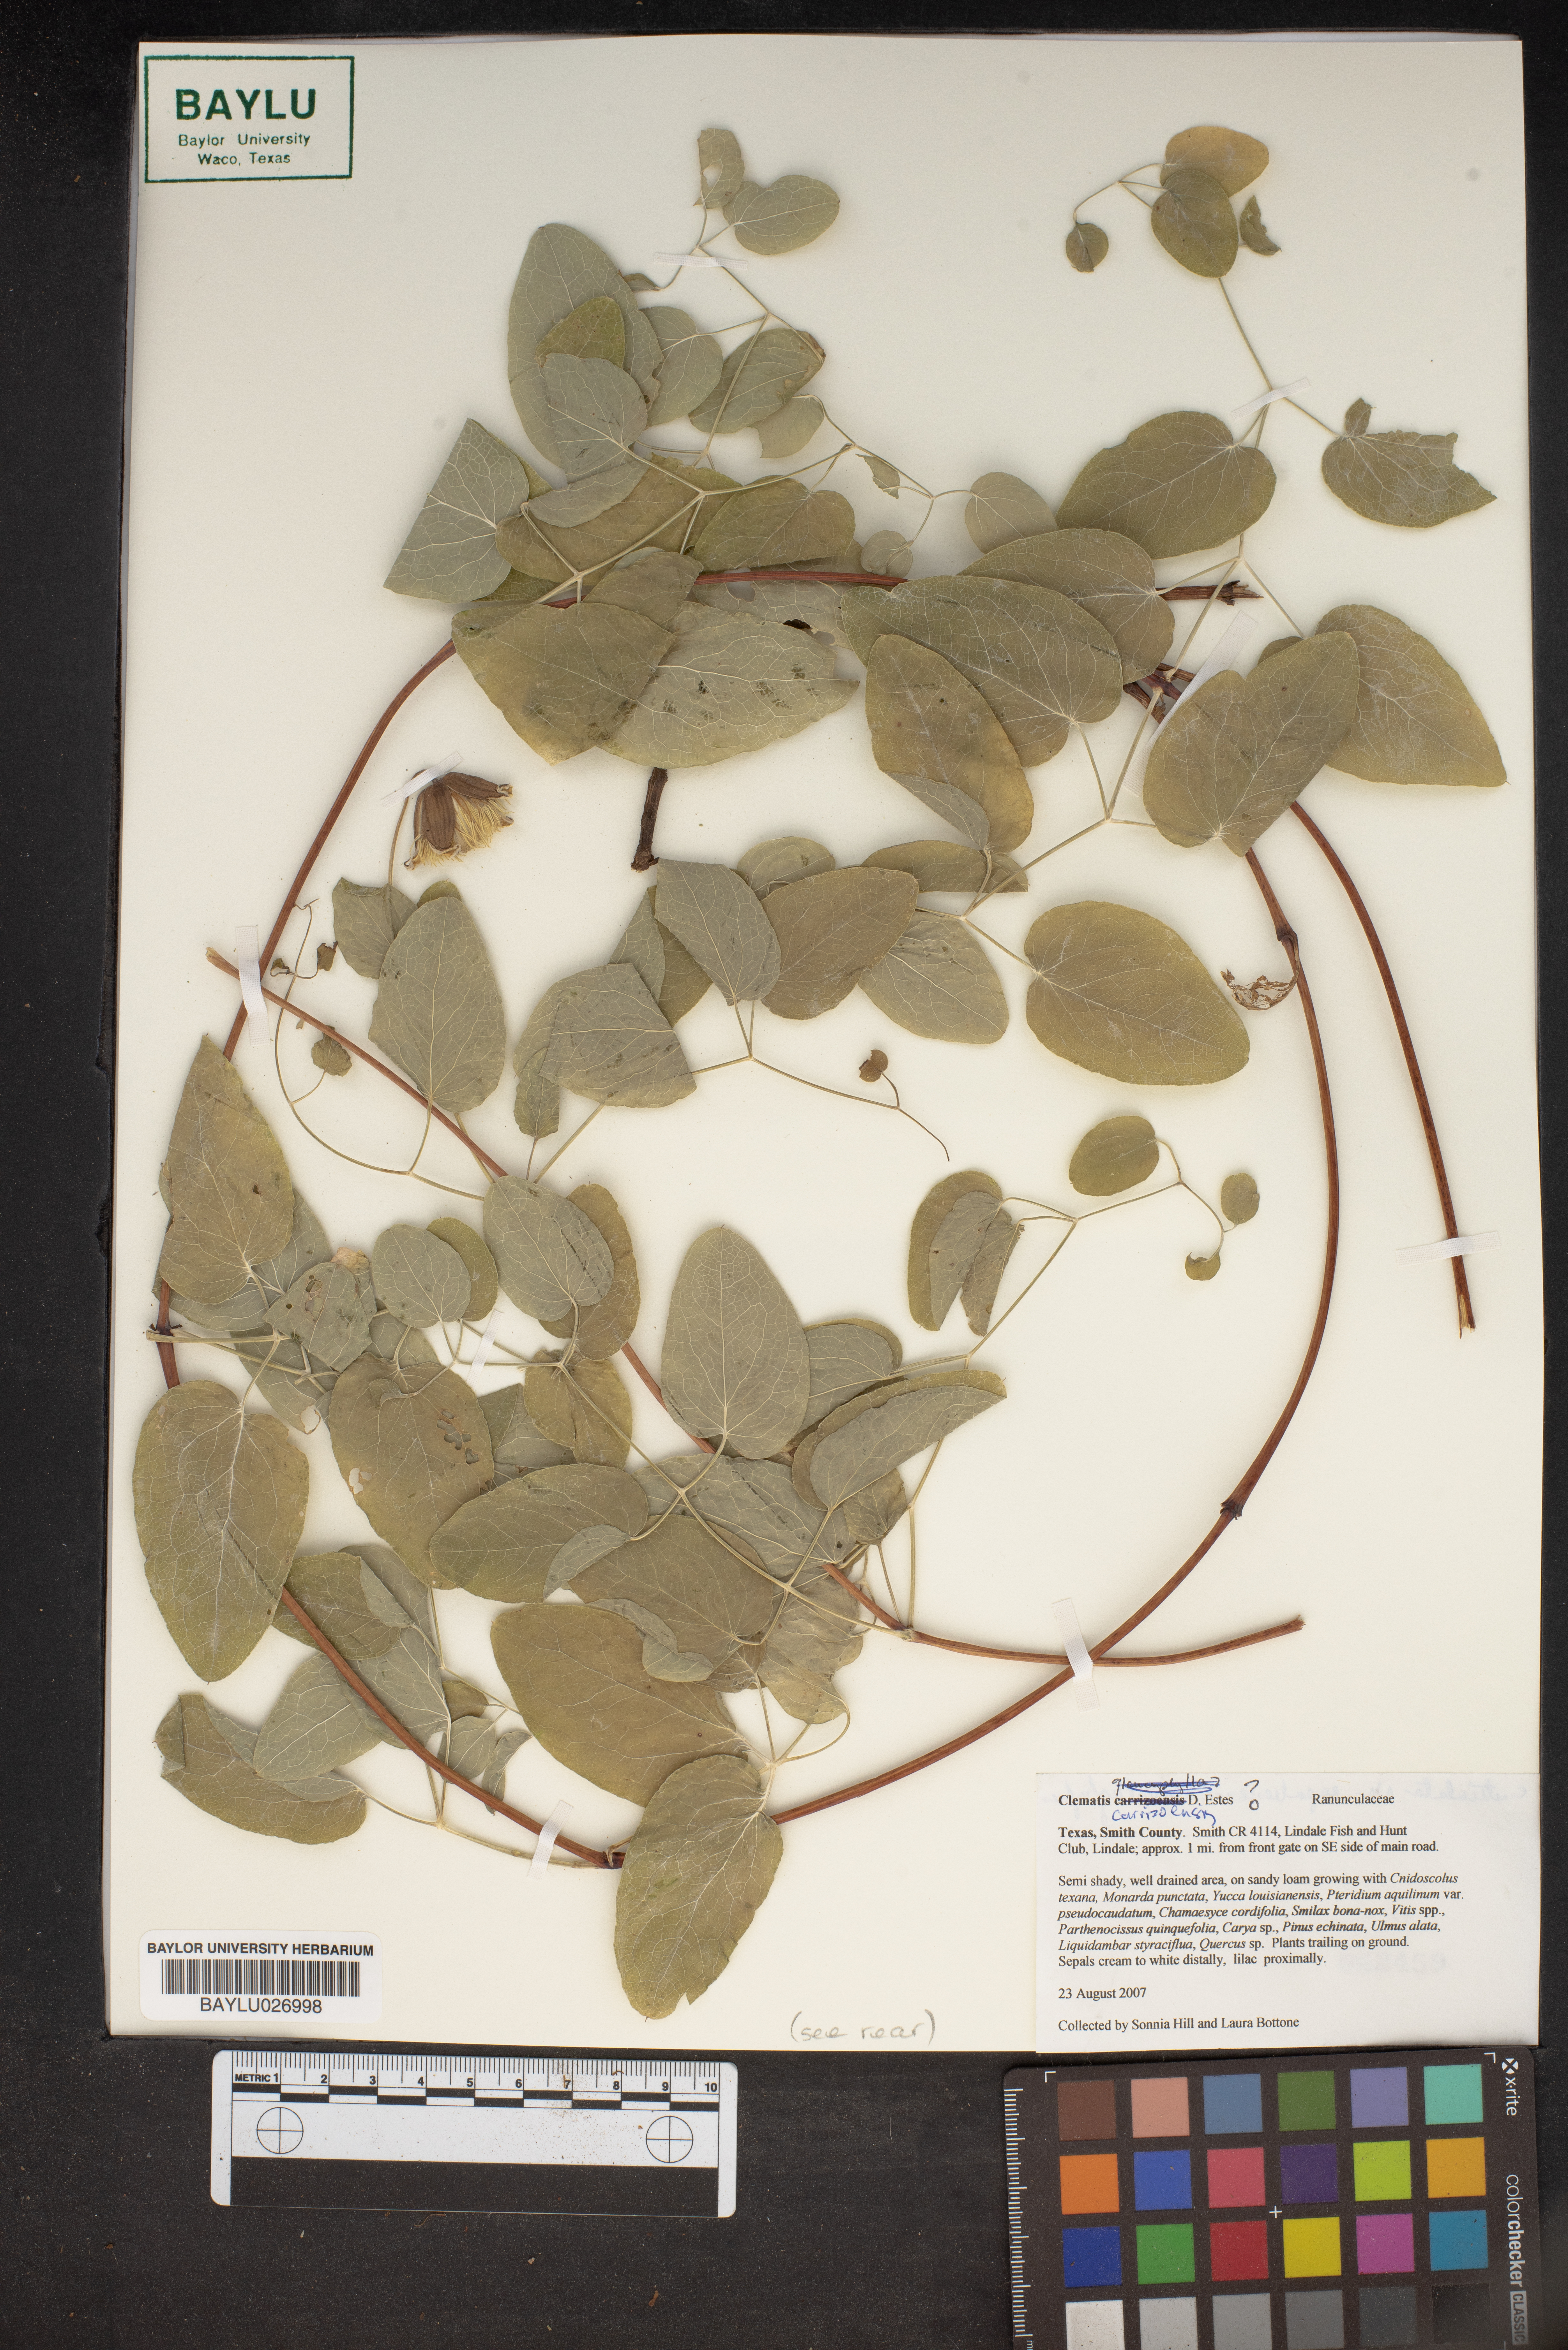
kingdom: Plantae
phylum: Tracheophyta
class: Magnoliopsida
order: Ranunculales
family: Ranunculaceae
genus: Clematis
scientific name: Clematis carrizoensis
